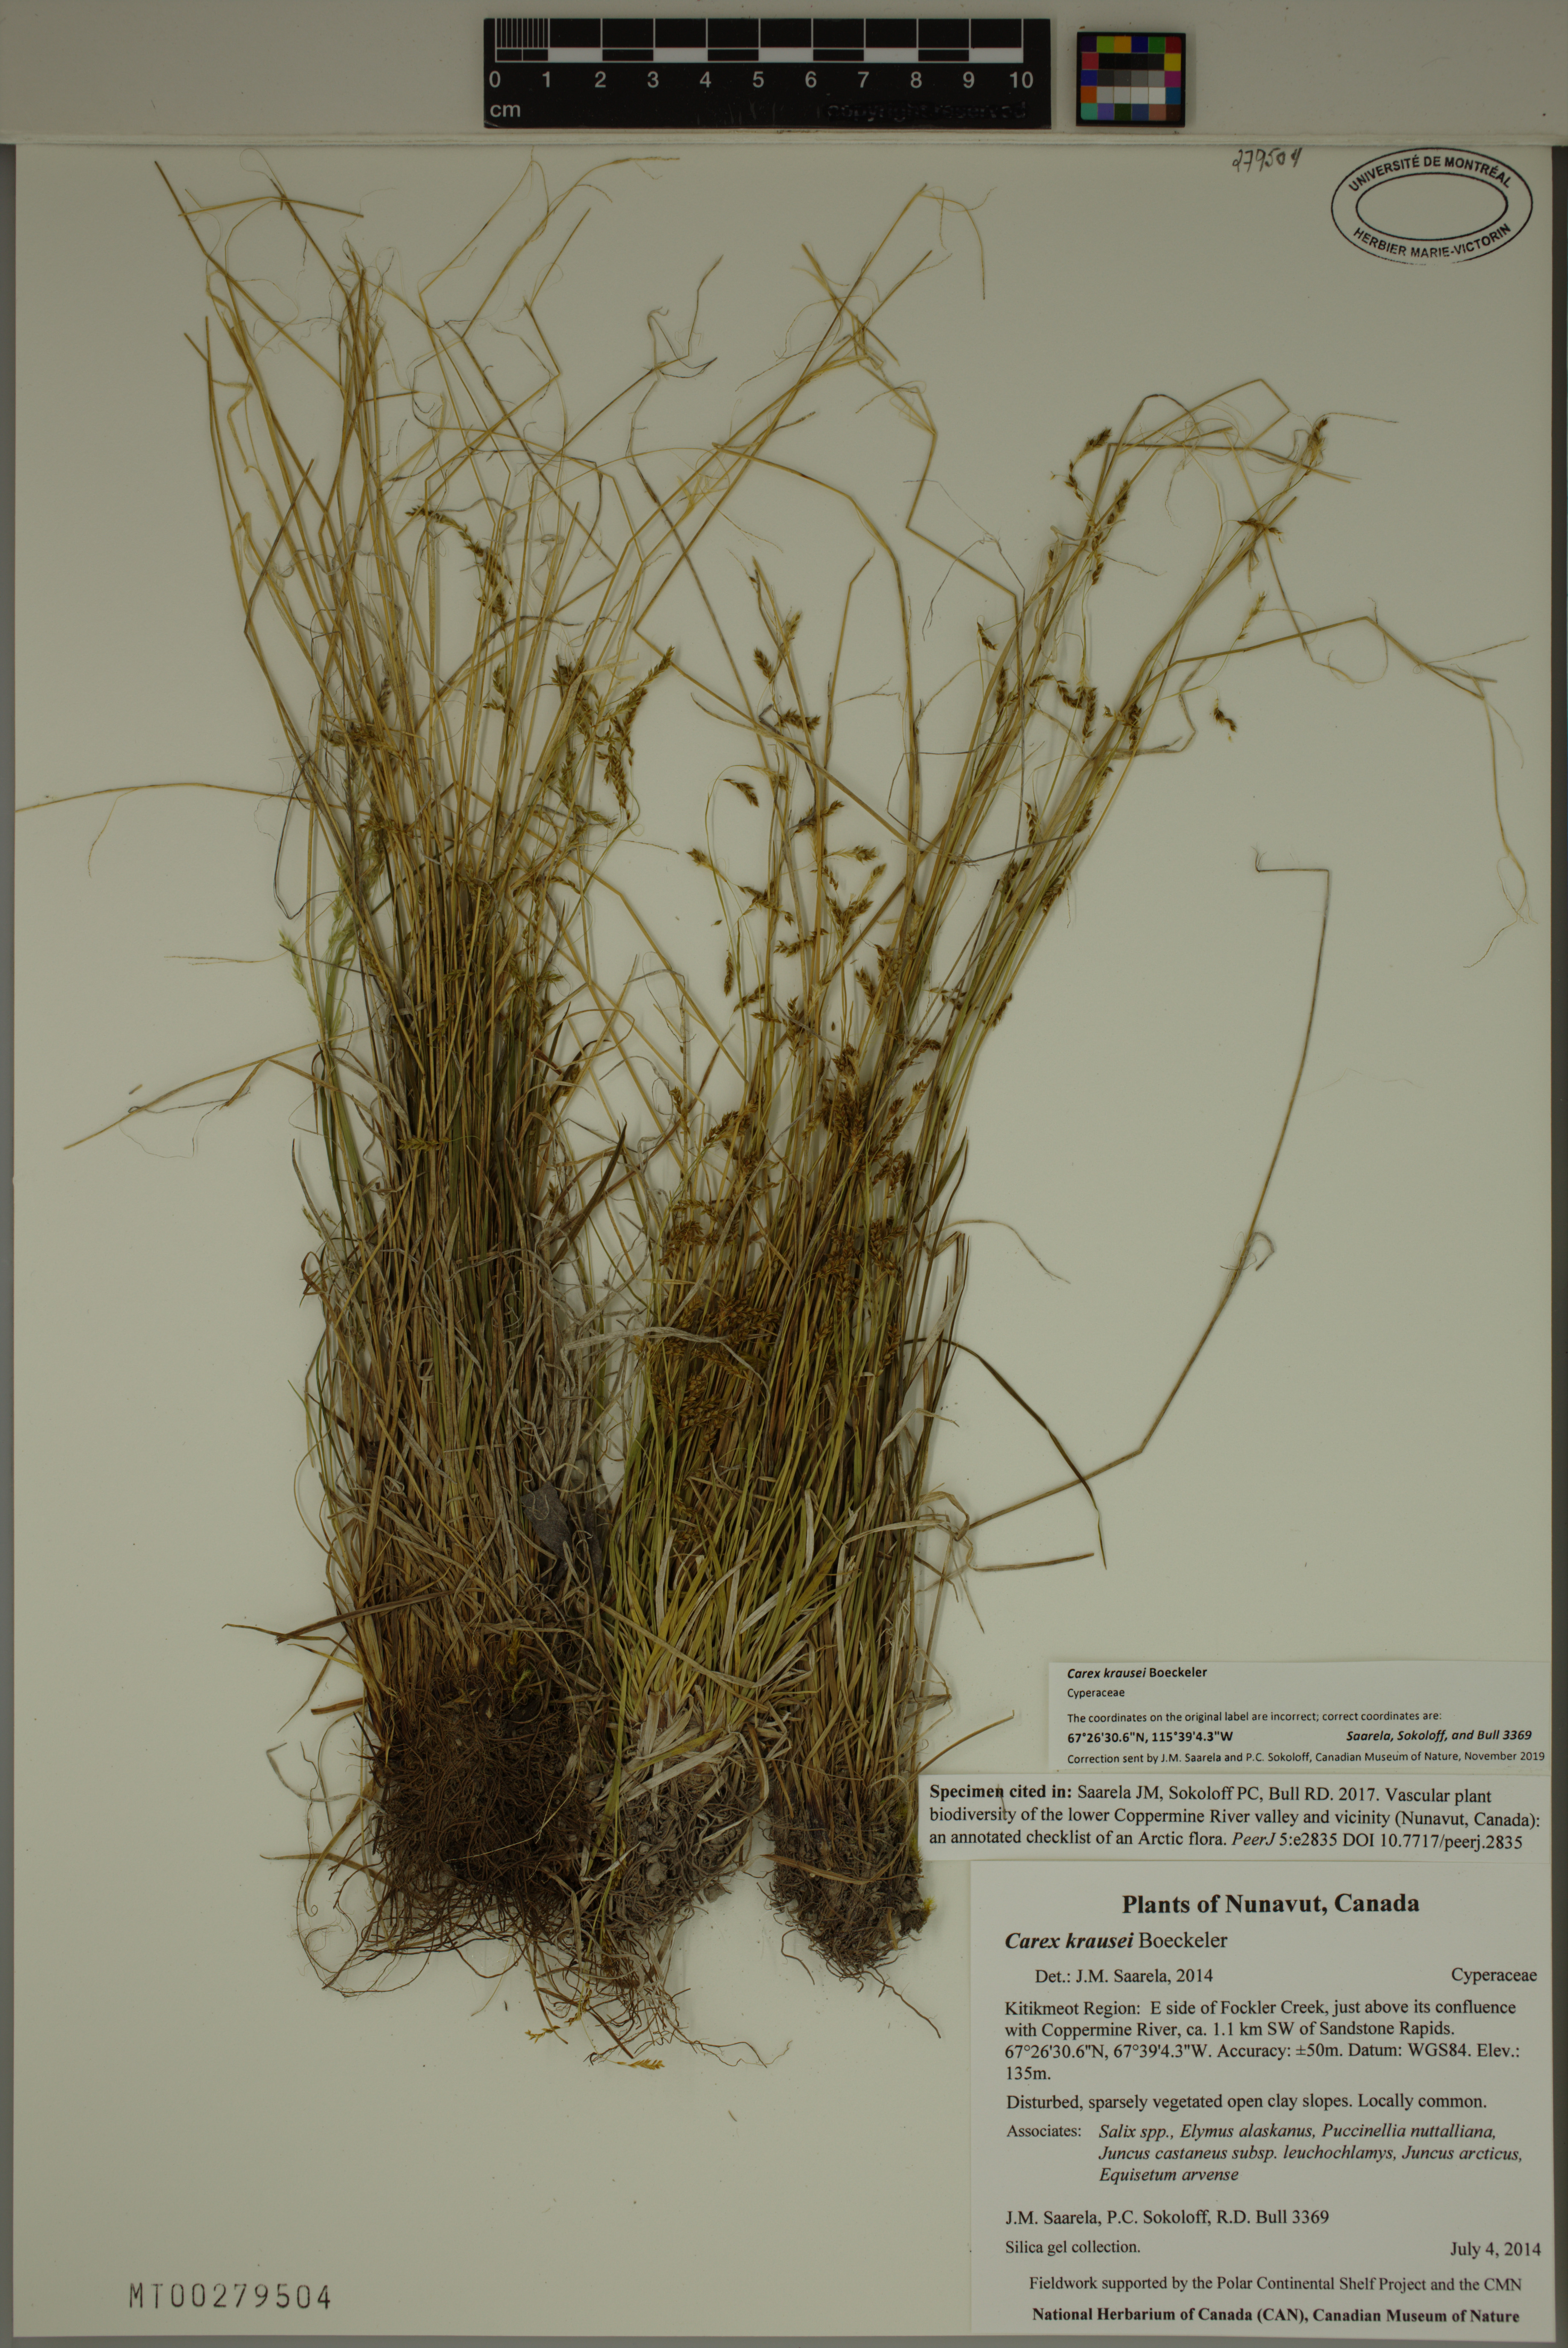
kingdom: Plantae
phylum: Tracheophyta
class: Liliopsida
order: Poales
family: Cyperaceae
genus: Carex
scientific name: Carex krausei
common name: Krause's sedge
